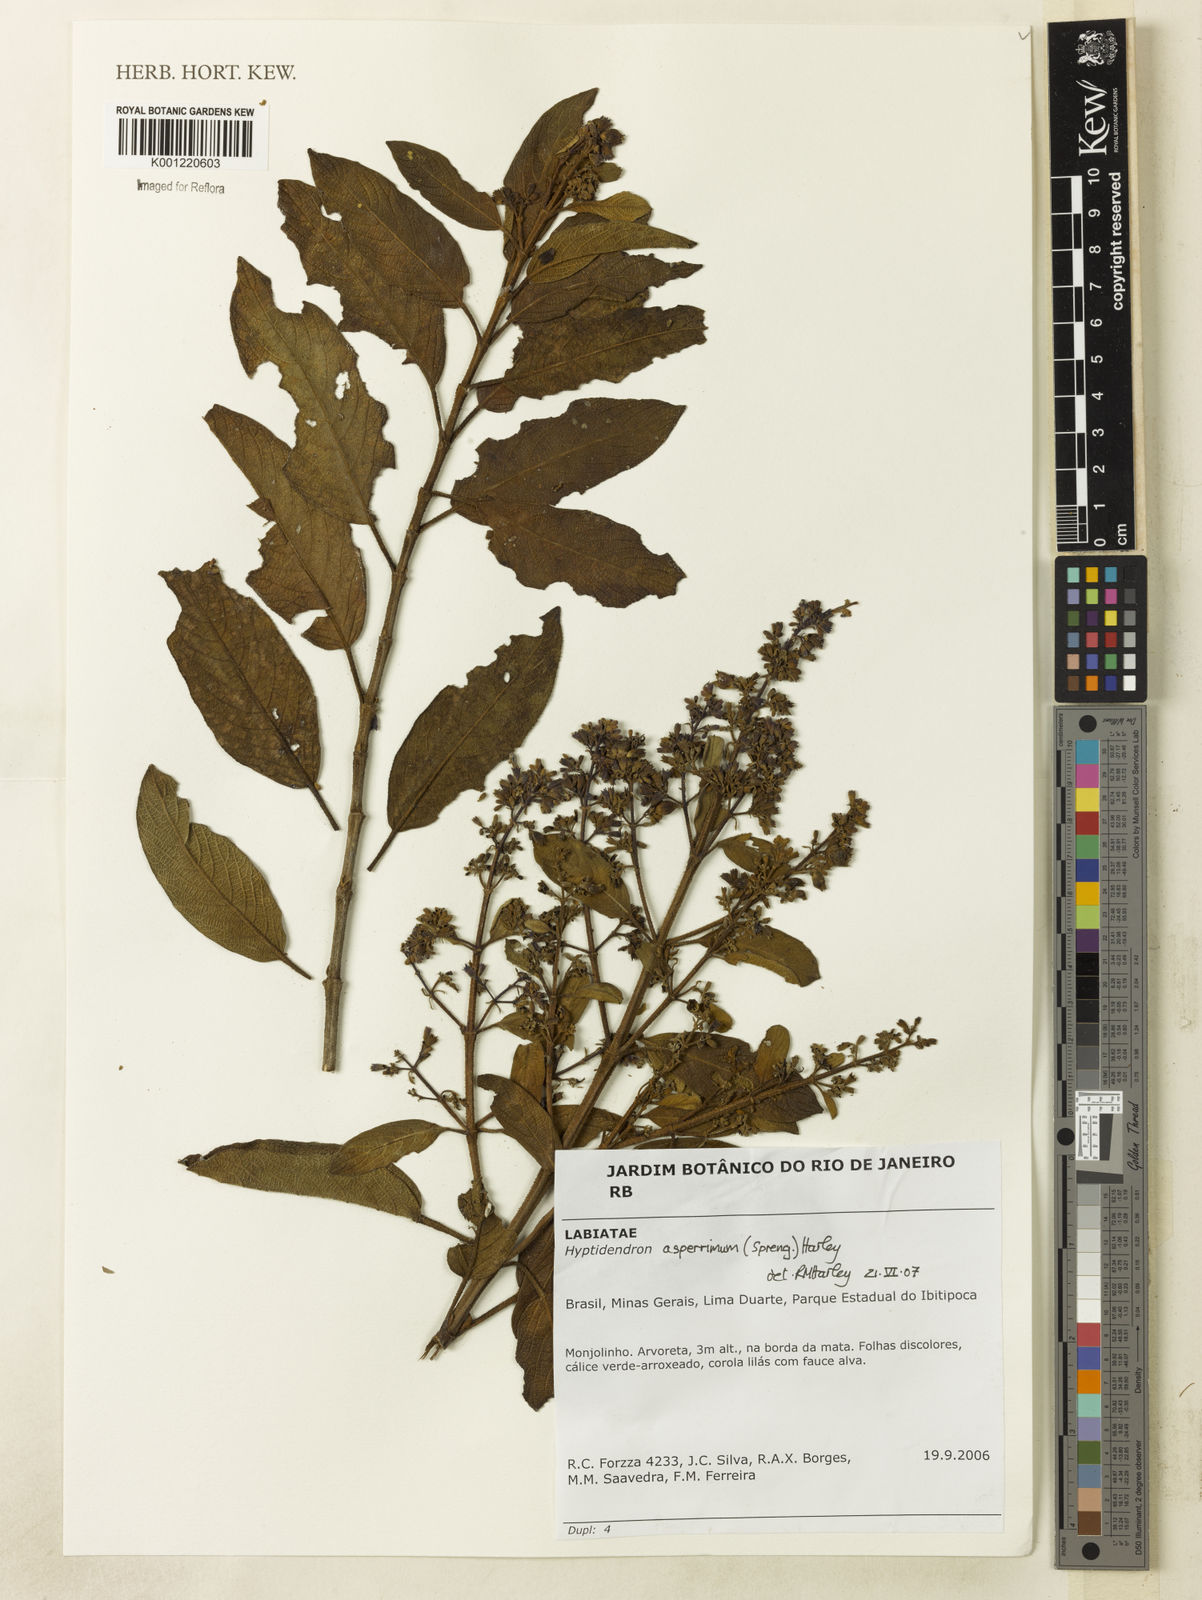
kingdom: Plantae
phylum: Tracheophyta
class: Magnoliopsida
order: Lamiales
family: Lamiaceae
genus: Hyptidendron
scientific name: Hyptidendron asperrimum
